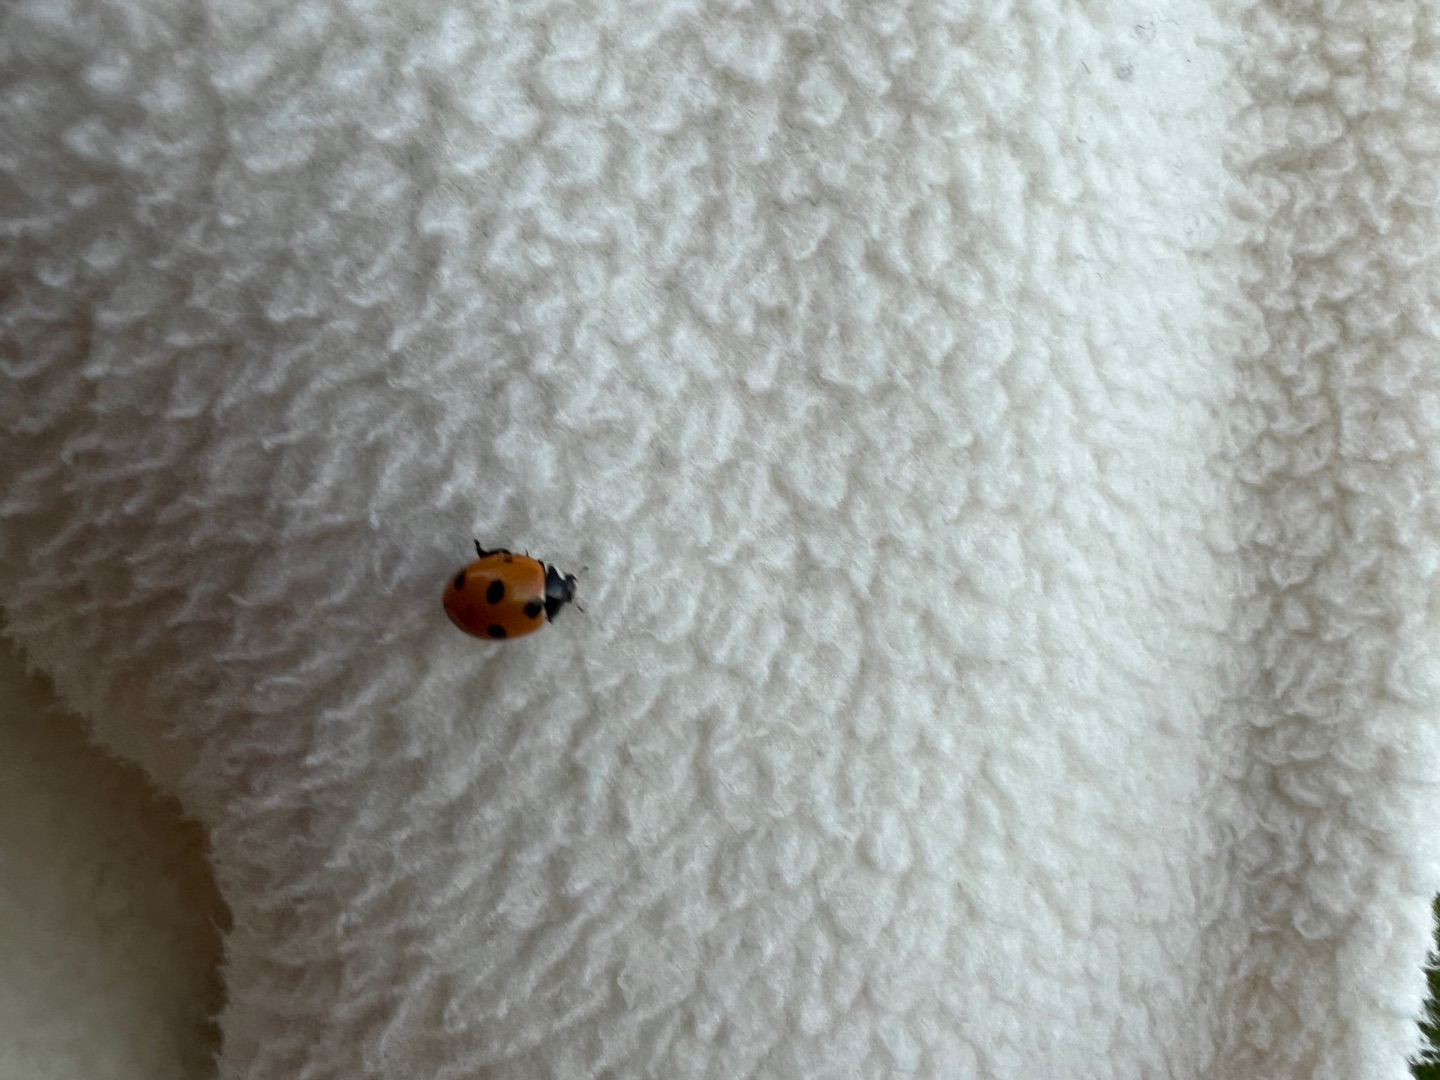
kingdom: Animalia
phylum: Arthropoda
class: Insecta
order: Coleoptera
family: Coccinellidae
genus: Coccinella
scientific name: Coccinella septempunctata
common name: Syvplettet mariehøne
